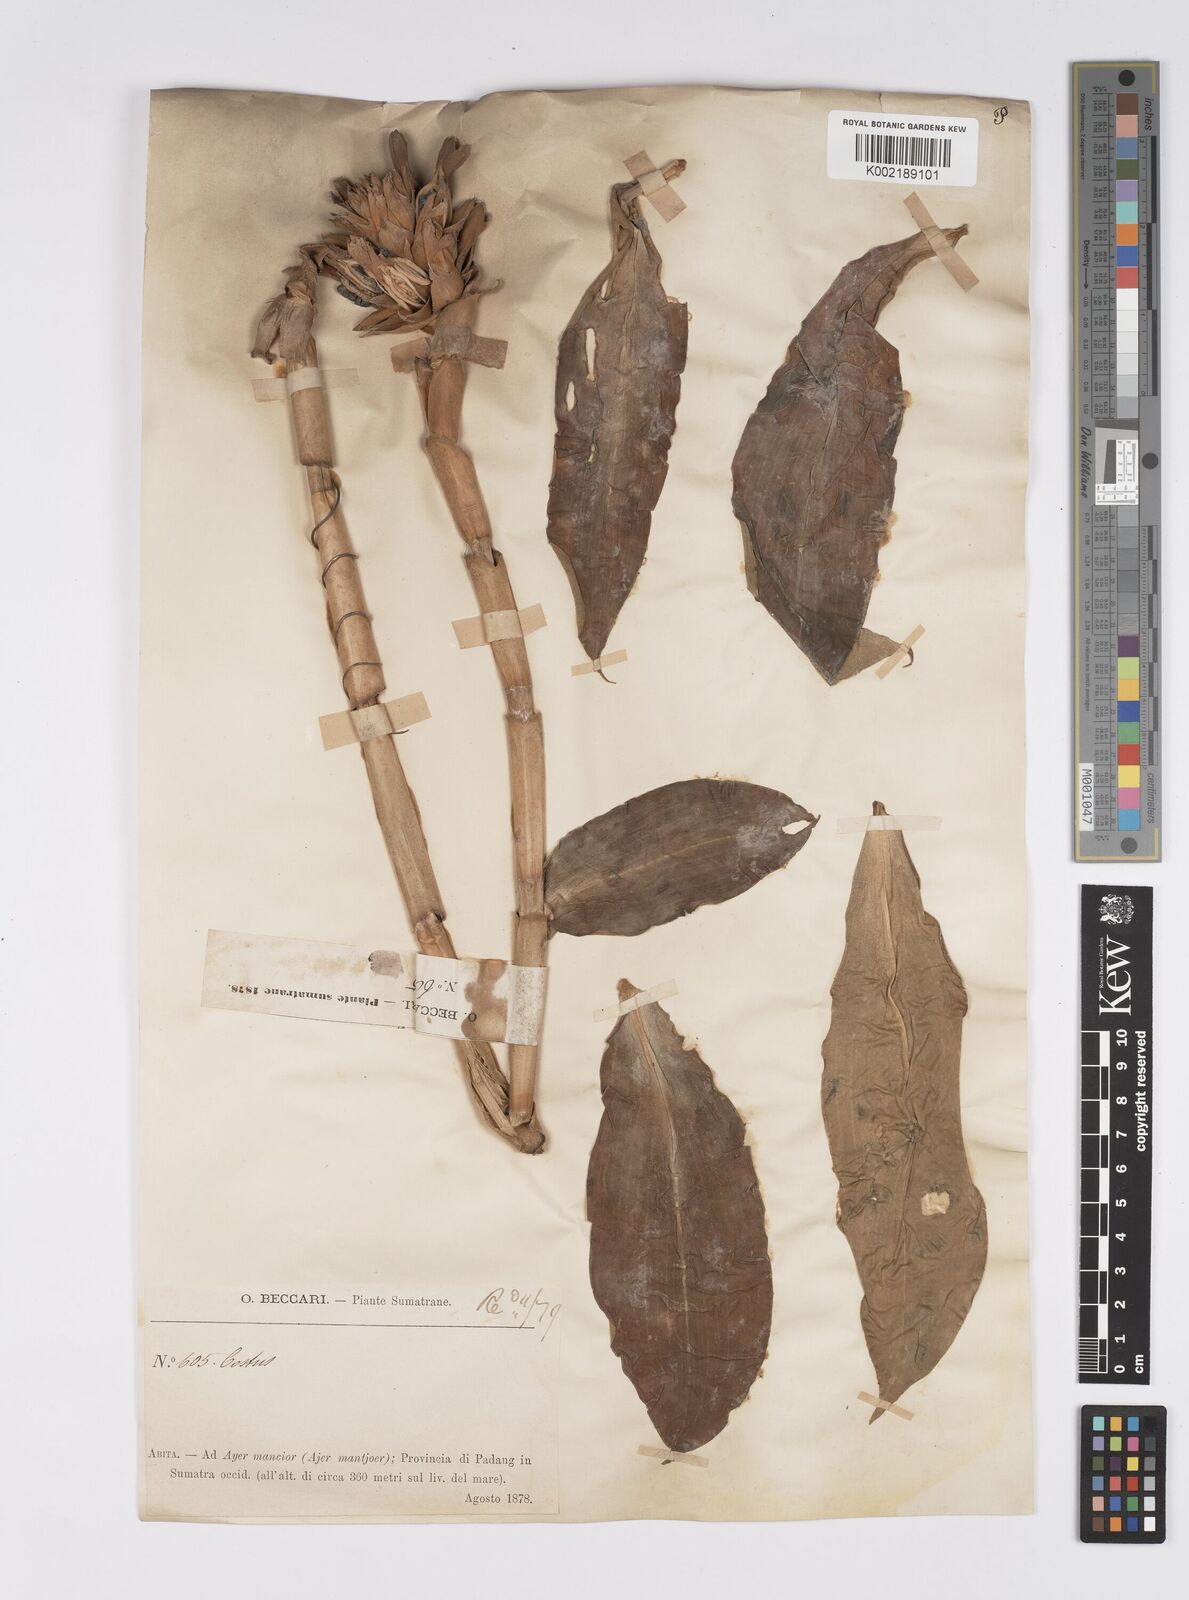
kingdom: Plantae
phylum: Tracheophyta
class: Liliopsida
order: Zingiberales
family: Costaceae
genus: Hellenia
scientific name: Hellenia speciosa
